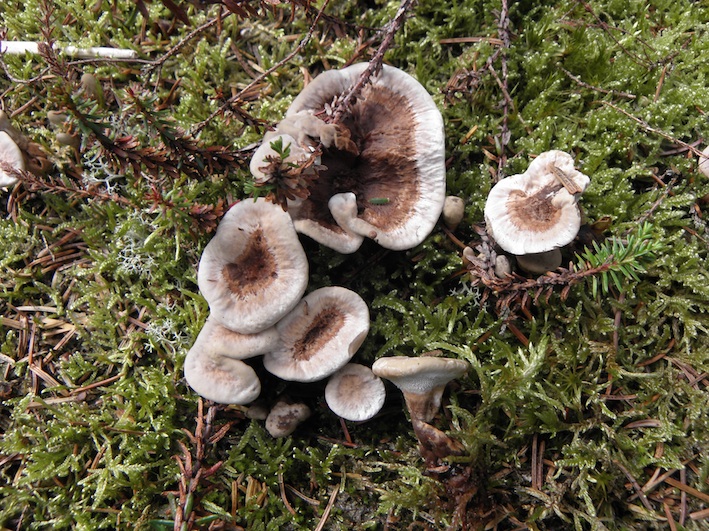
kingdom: Fungi
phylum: Basidiomycota
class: Agaricomycetes
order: Thelephorales
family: Thelephoraceae
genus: Phellodon
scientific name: Phellodon tomentosus
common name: tragtformet duftpigsvamp
